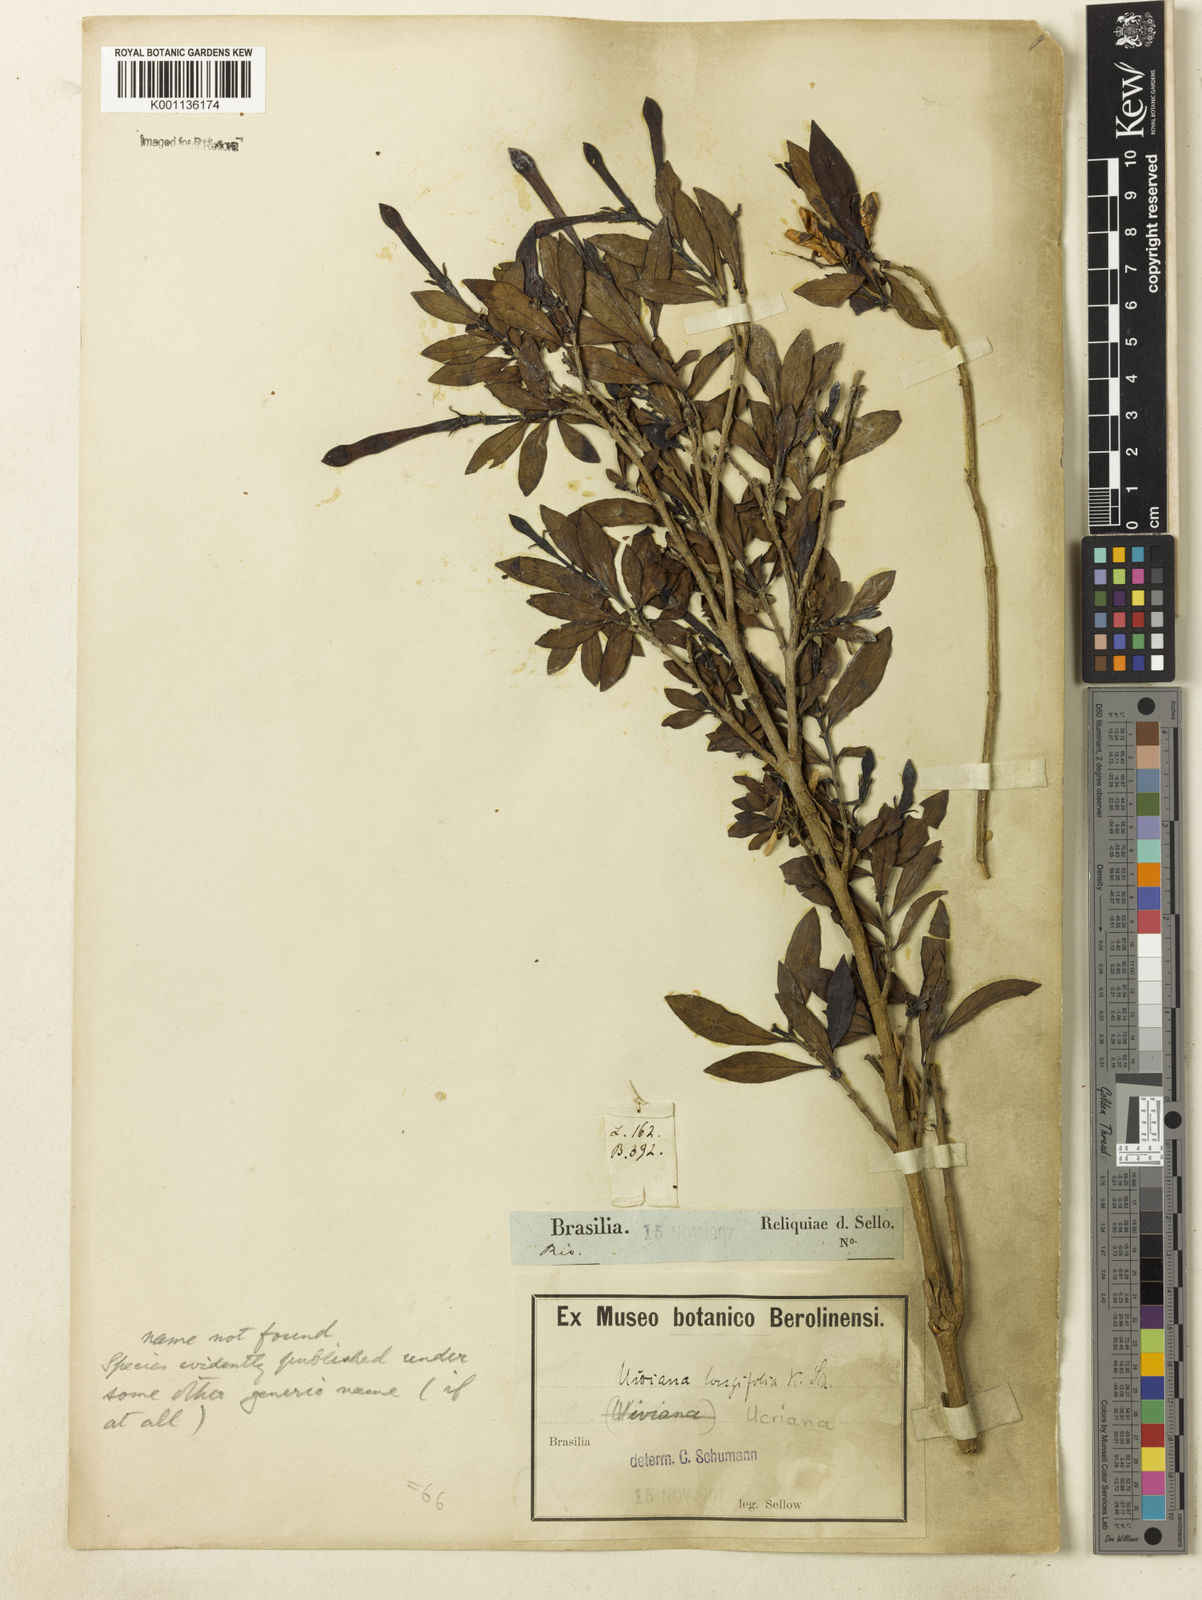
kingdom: Plantae
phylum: Tracheophyta
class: Magnoliopsida
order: Gentianales
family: Rubiaceae
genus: Augusta
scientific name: Augusta longifolia
